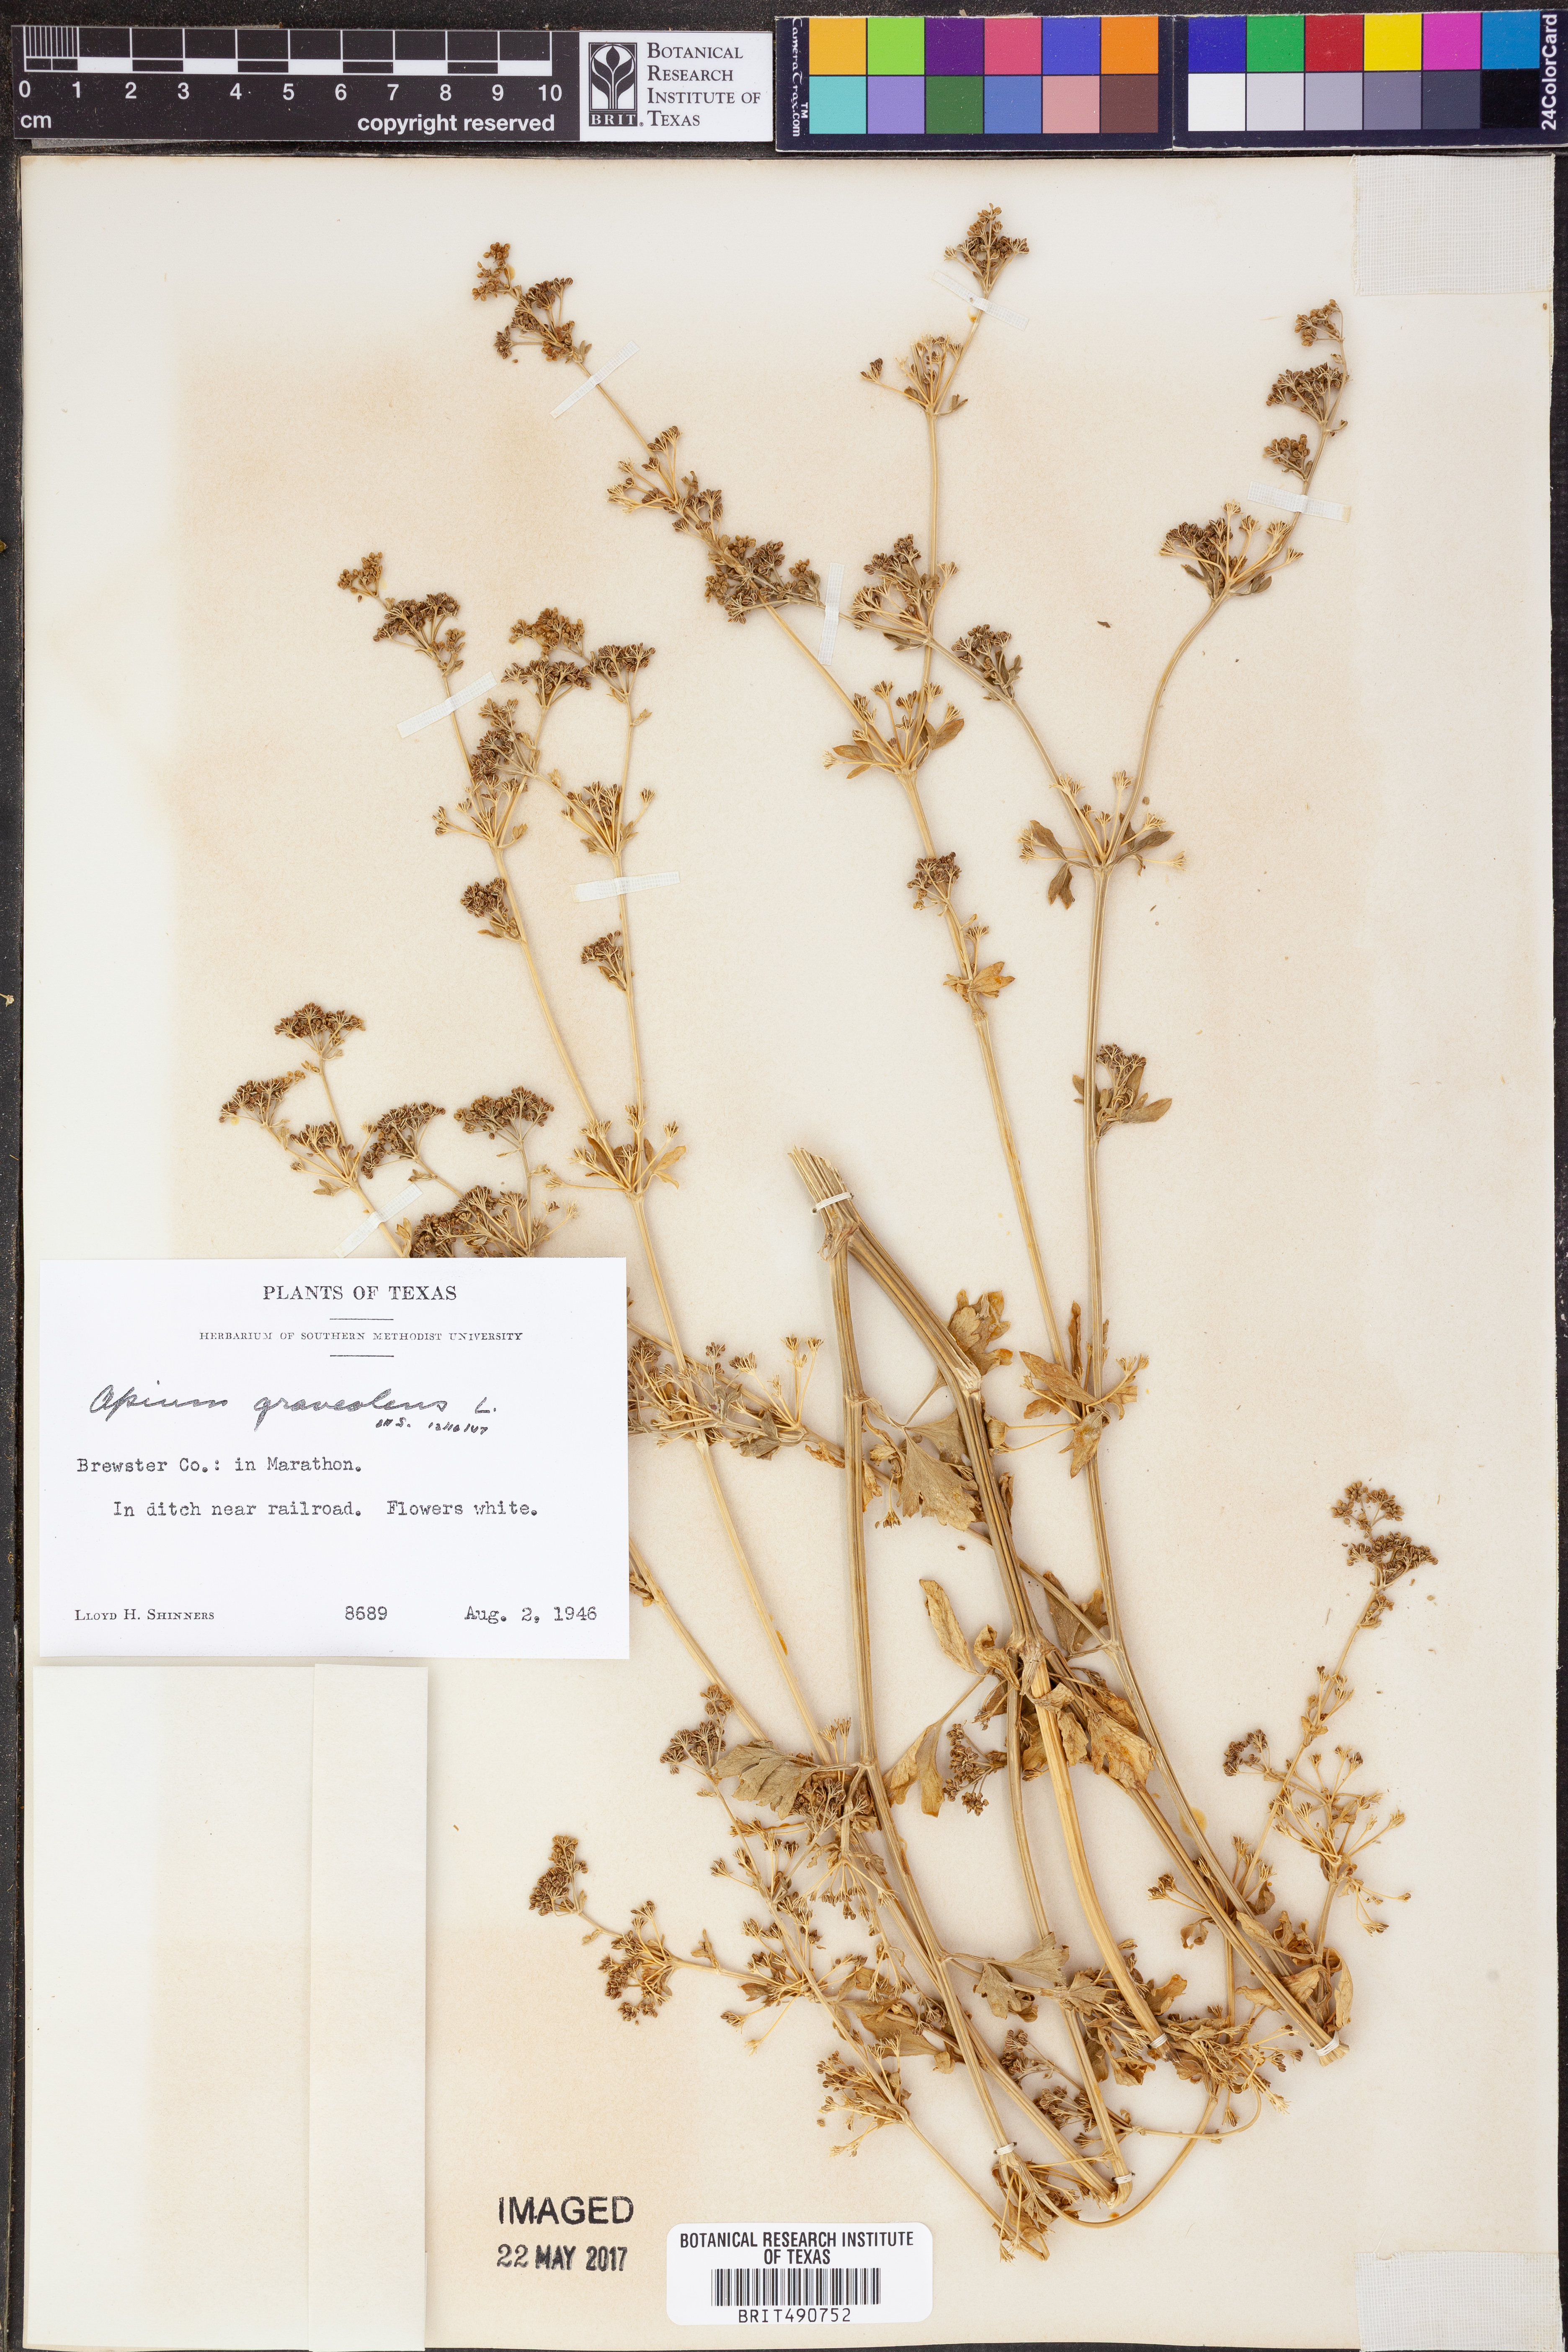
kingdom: Plantae
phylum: Tracheophyta
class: Magnoliopsida
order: Apiales
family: Apiaceae
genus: Apium
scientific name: Apium graveolens
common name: Wild celery
